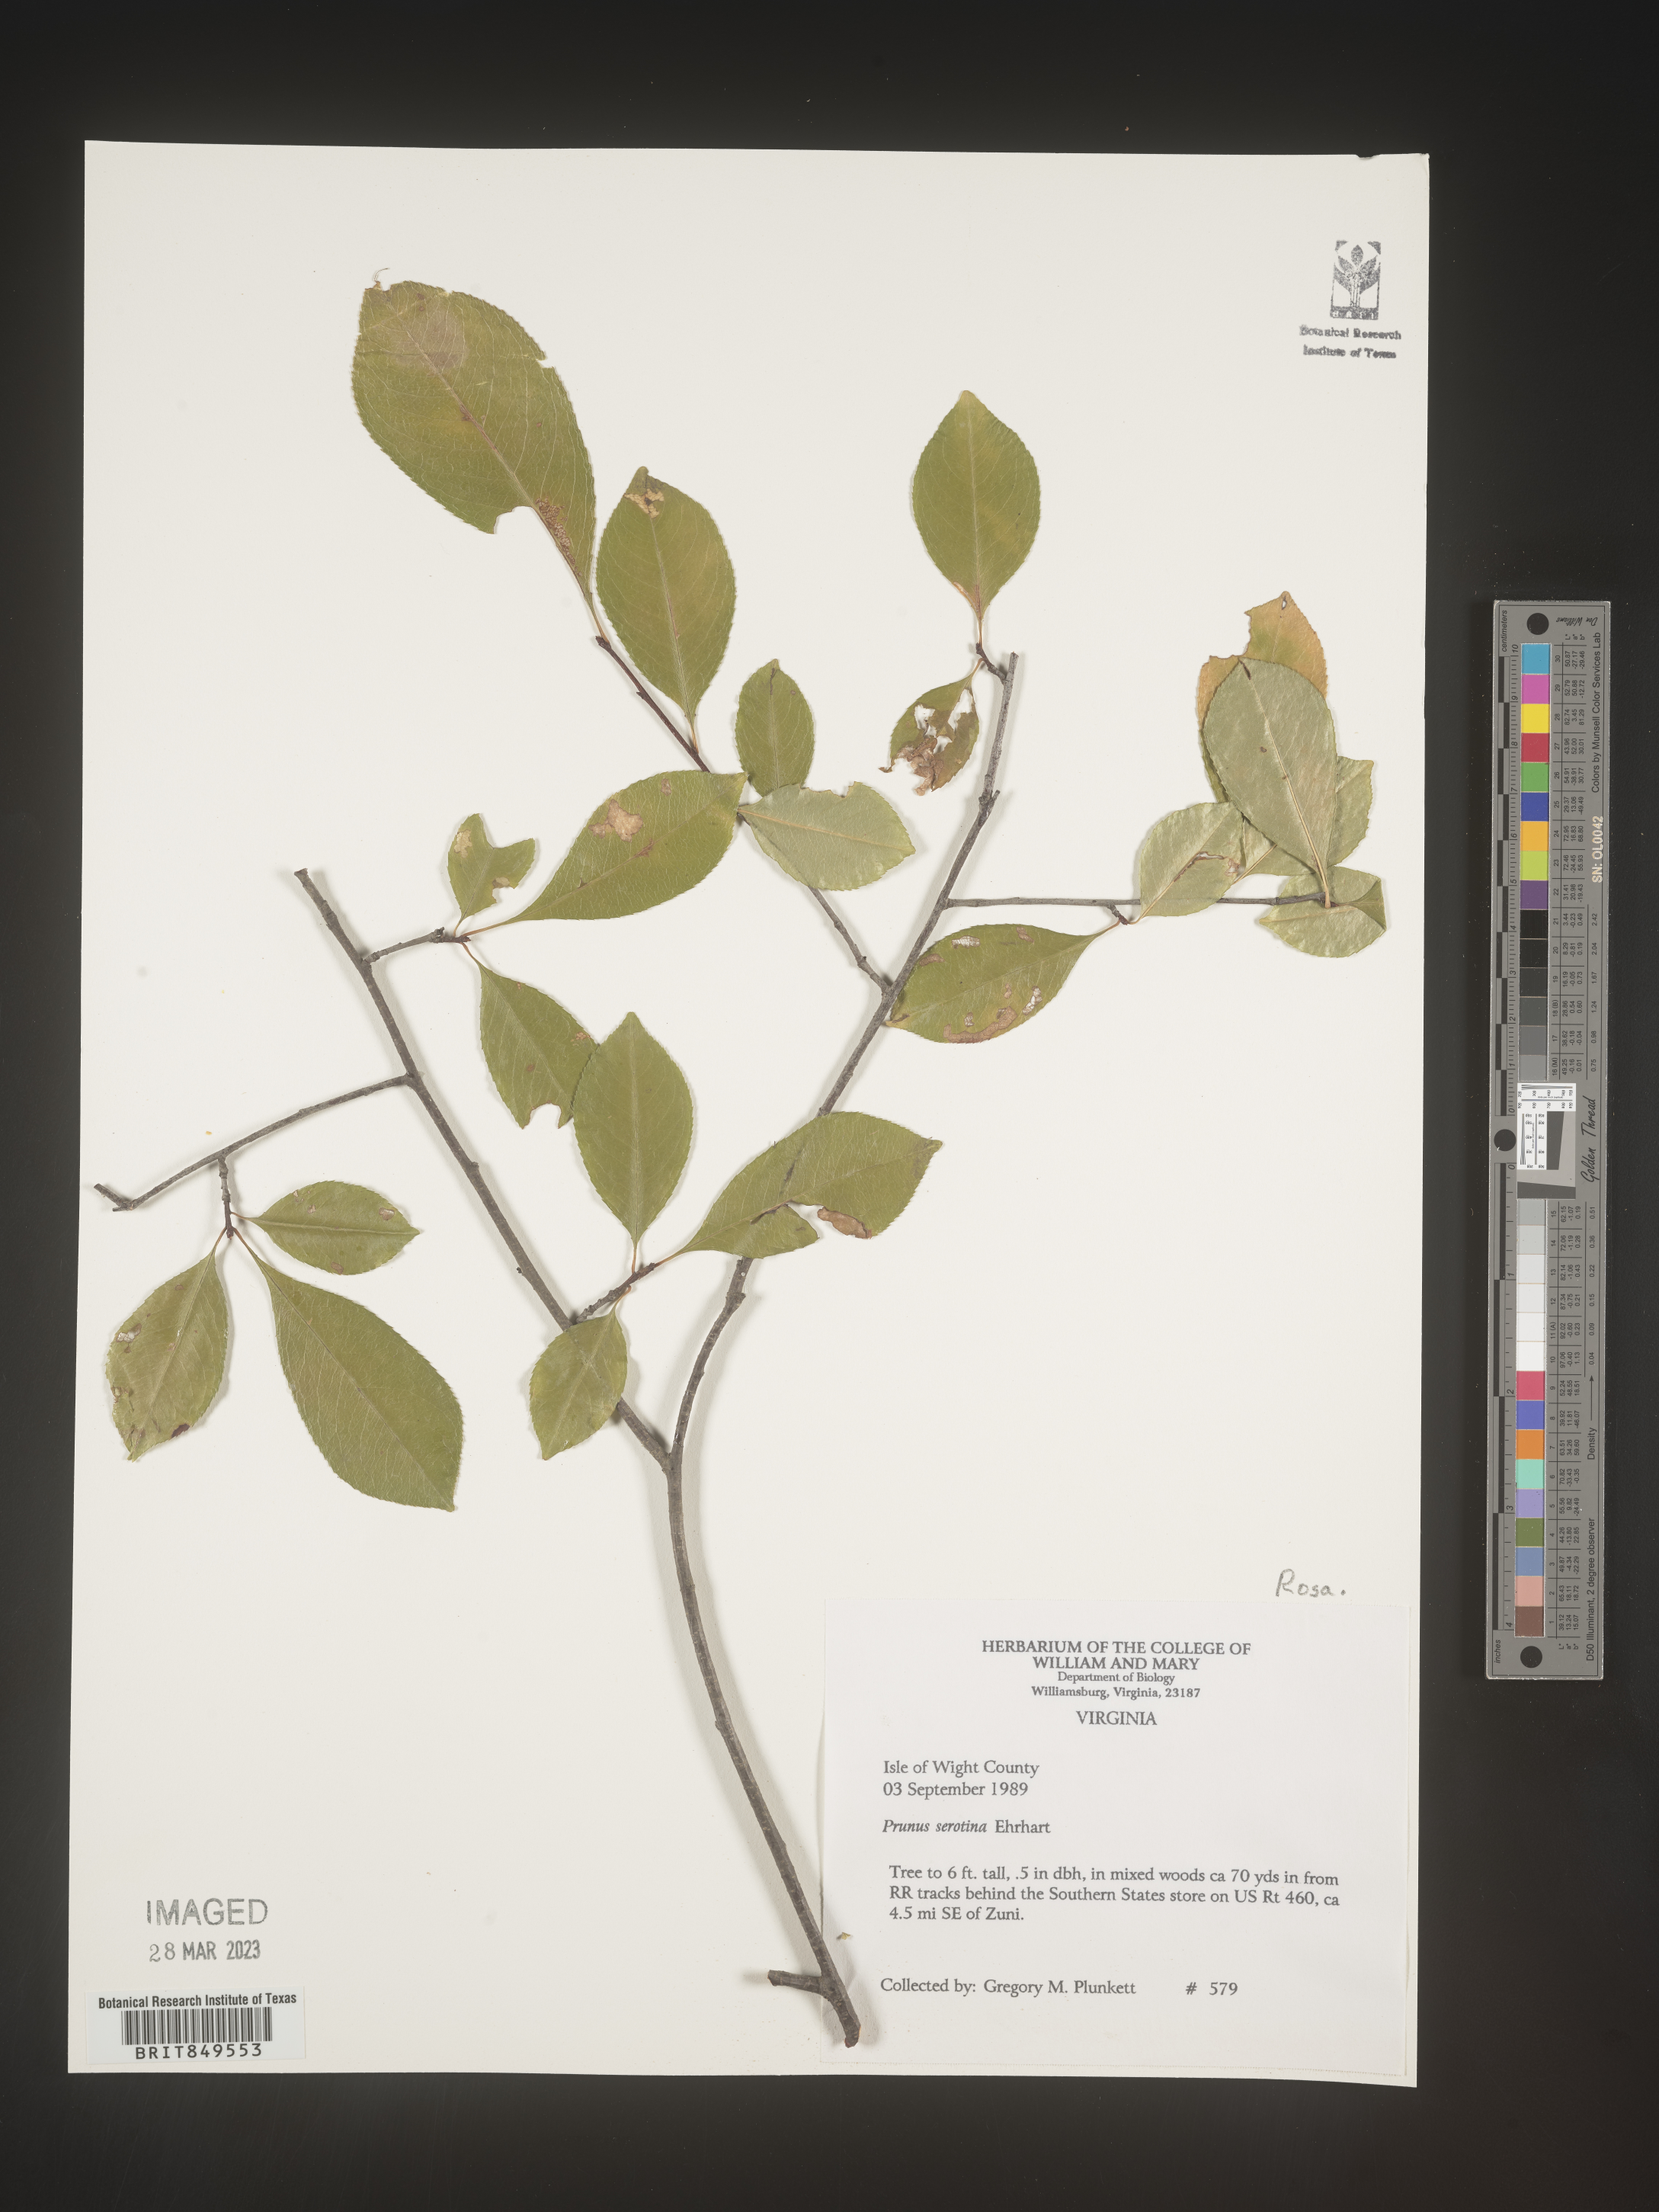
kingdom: Plantae
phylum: Tracheophyta
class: Magnoliopsida
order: Rosales
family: Rosaceae
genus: Prunus
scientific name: Prunus serotina
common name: Black cherry
